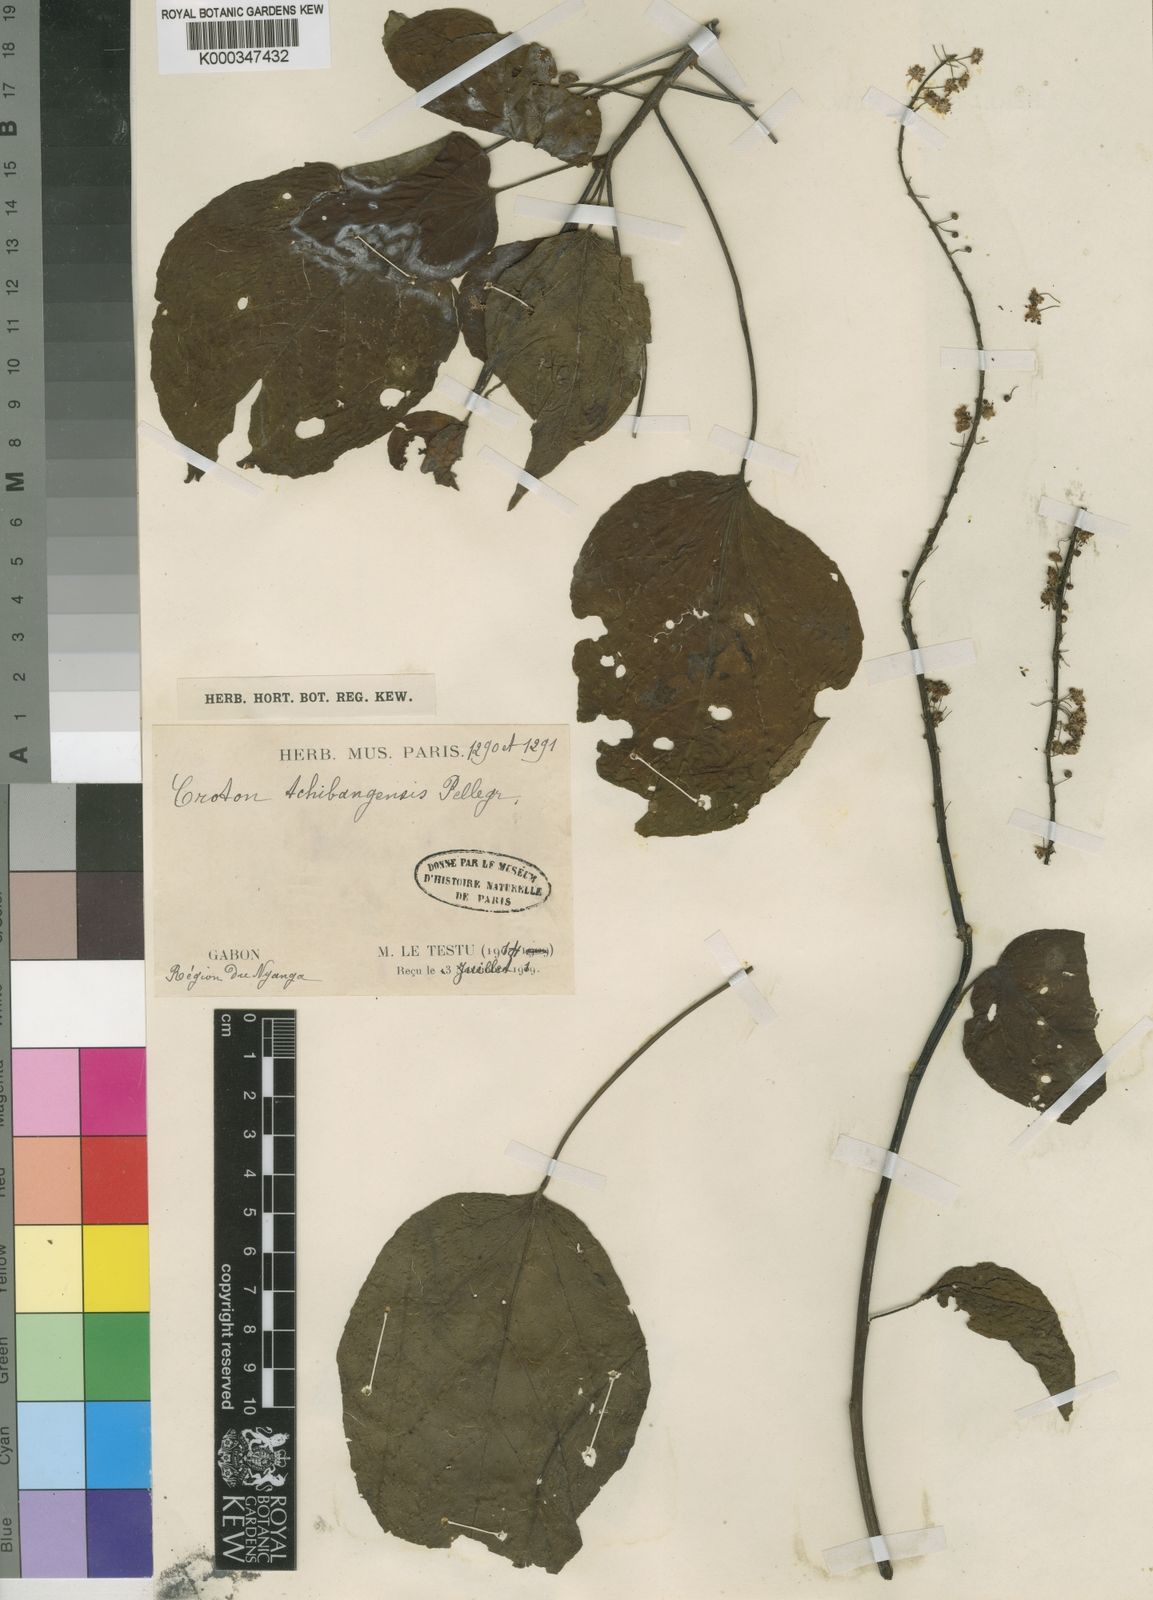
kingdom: Plantae
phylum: Tracheophyta
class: Magnoliopsida
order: Malpighiales
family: Euphorbiaceae
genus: Croton
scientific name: Croton tchibangensis
